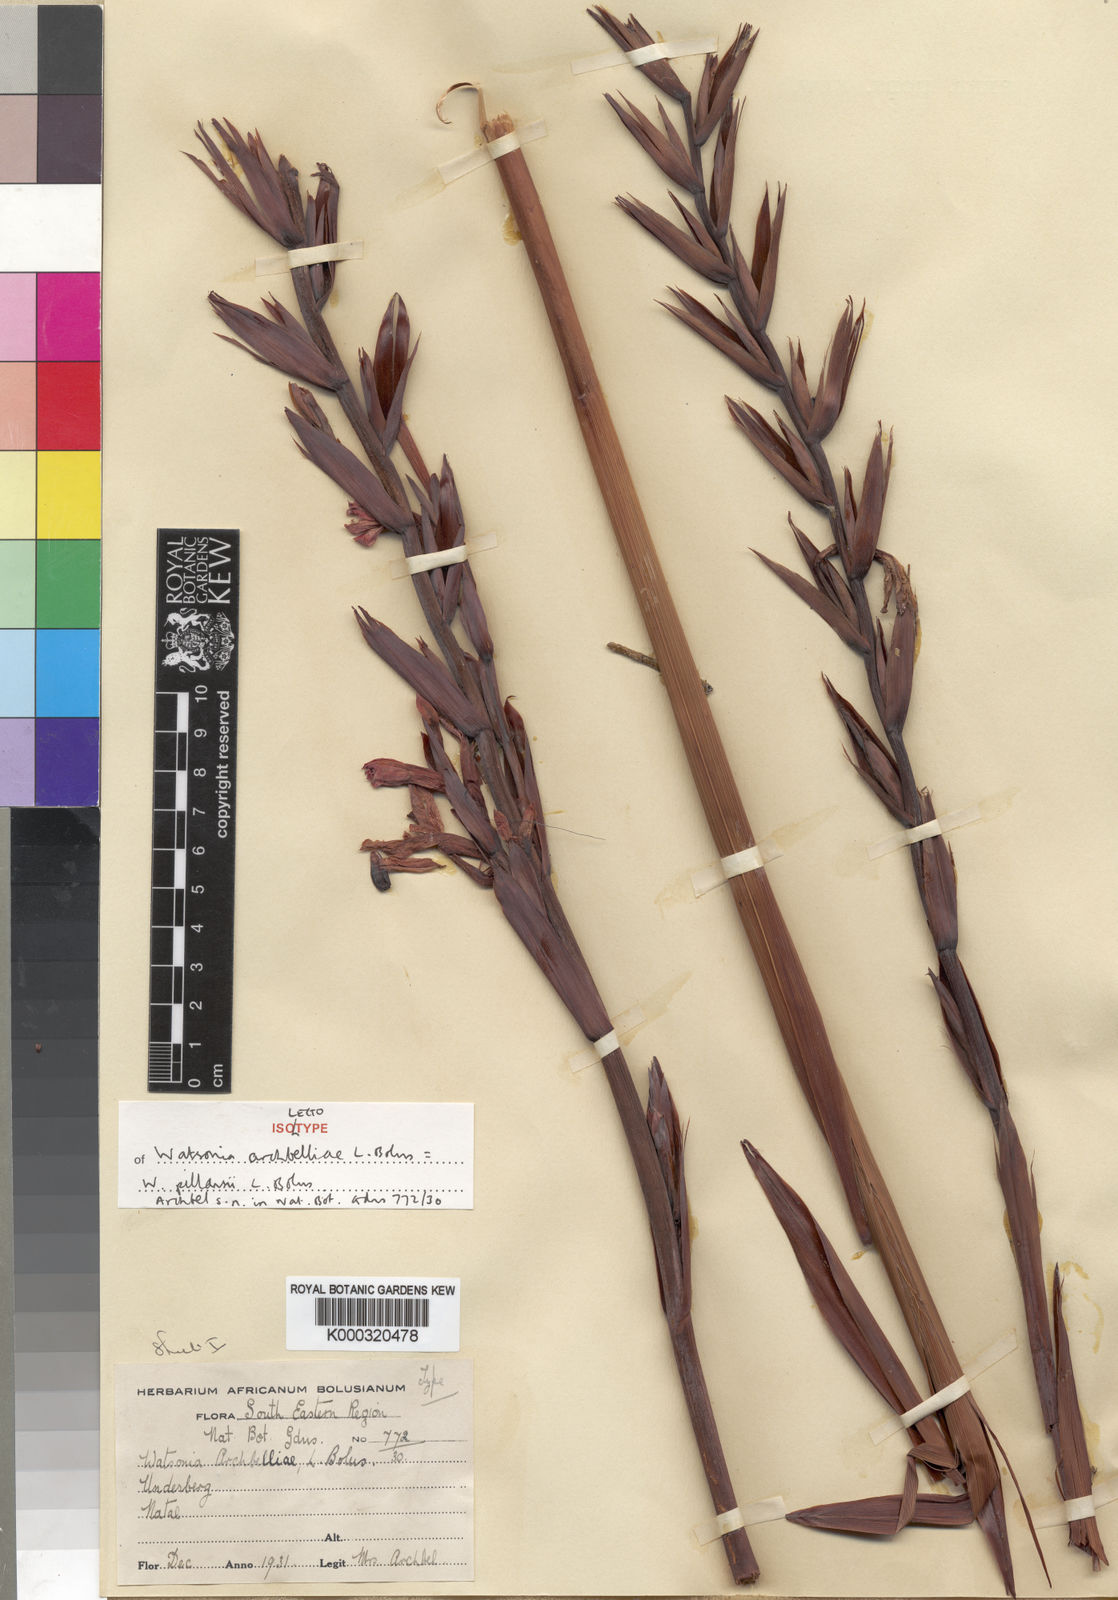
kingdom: Plantae
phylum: Tracheophyta
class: Liliopsida
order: Asparagales
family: Iridaceae
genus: Watsonia
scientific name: Watsonia pillansii
